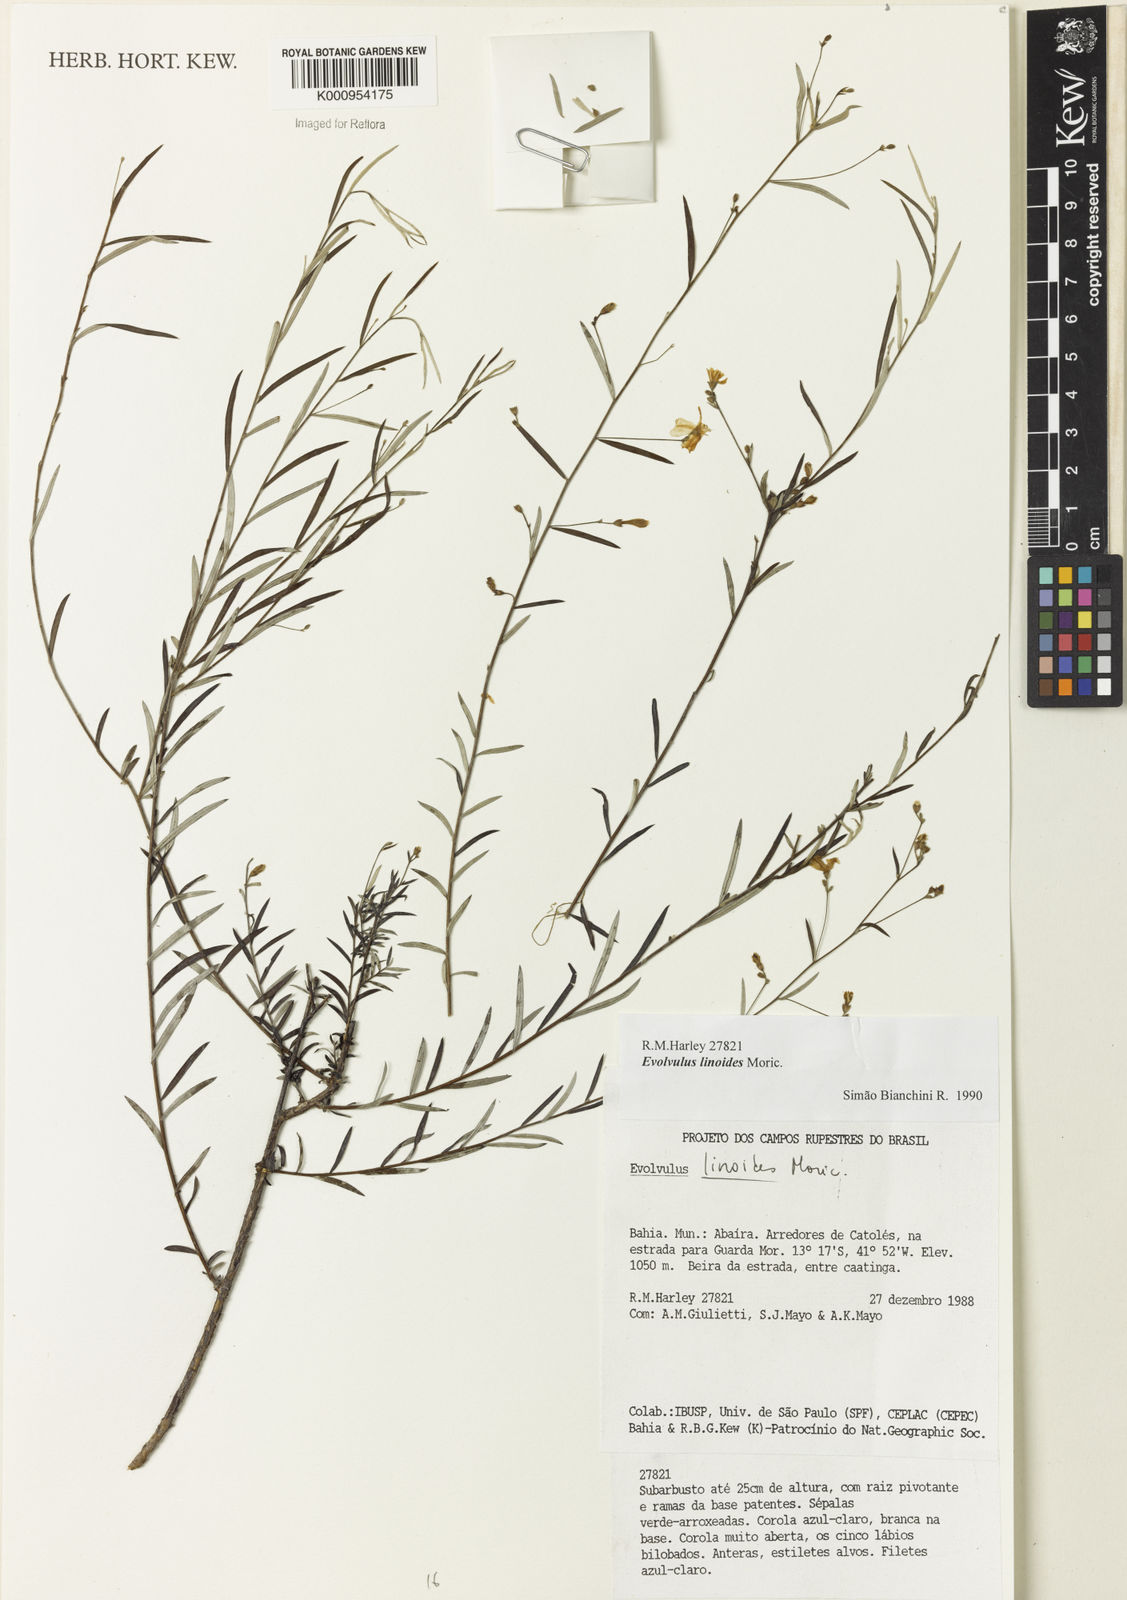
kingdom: Plantae
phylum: Tracheophyta
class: Magnoliopsida
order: Solanales
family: Convolvulaceae
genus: Evolvulus
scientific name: Evolvulus linoides
